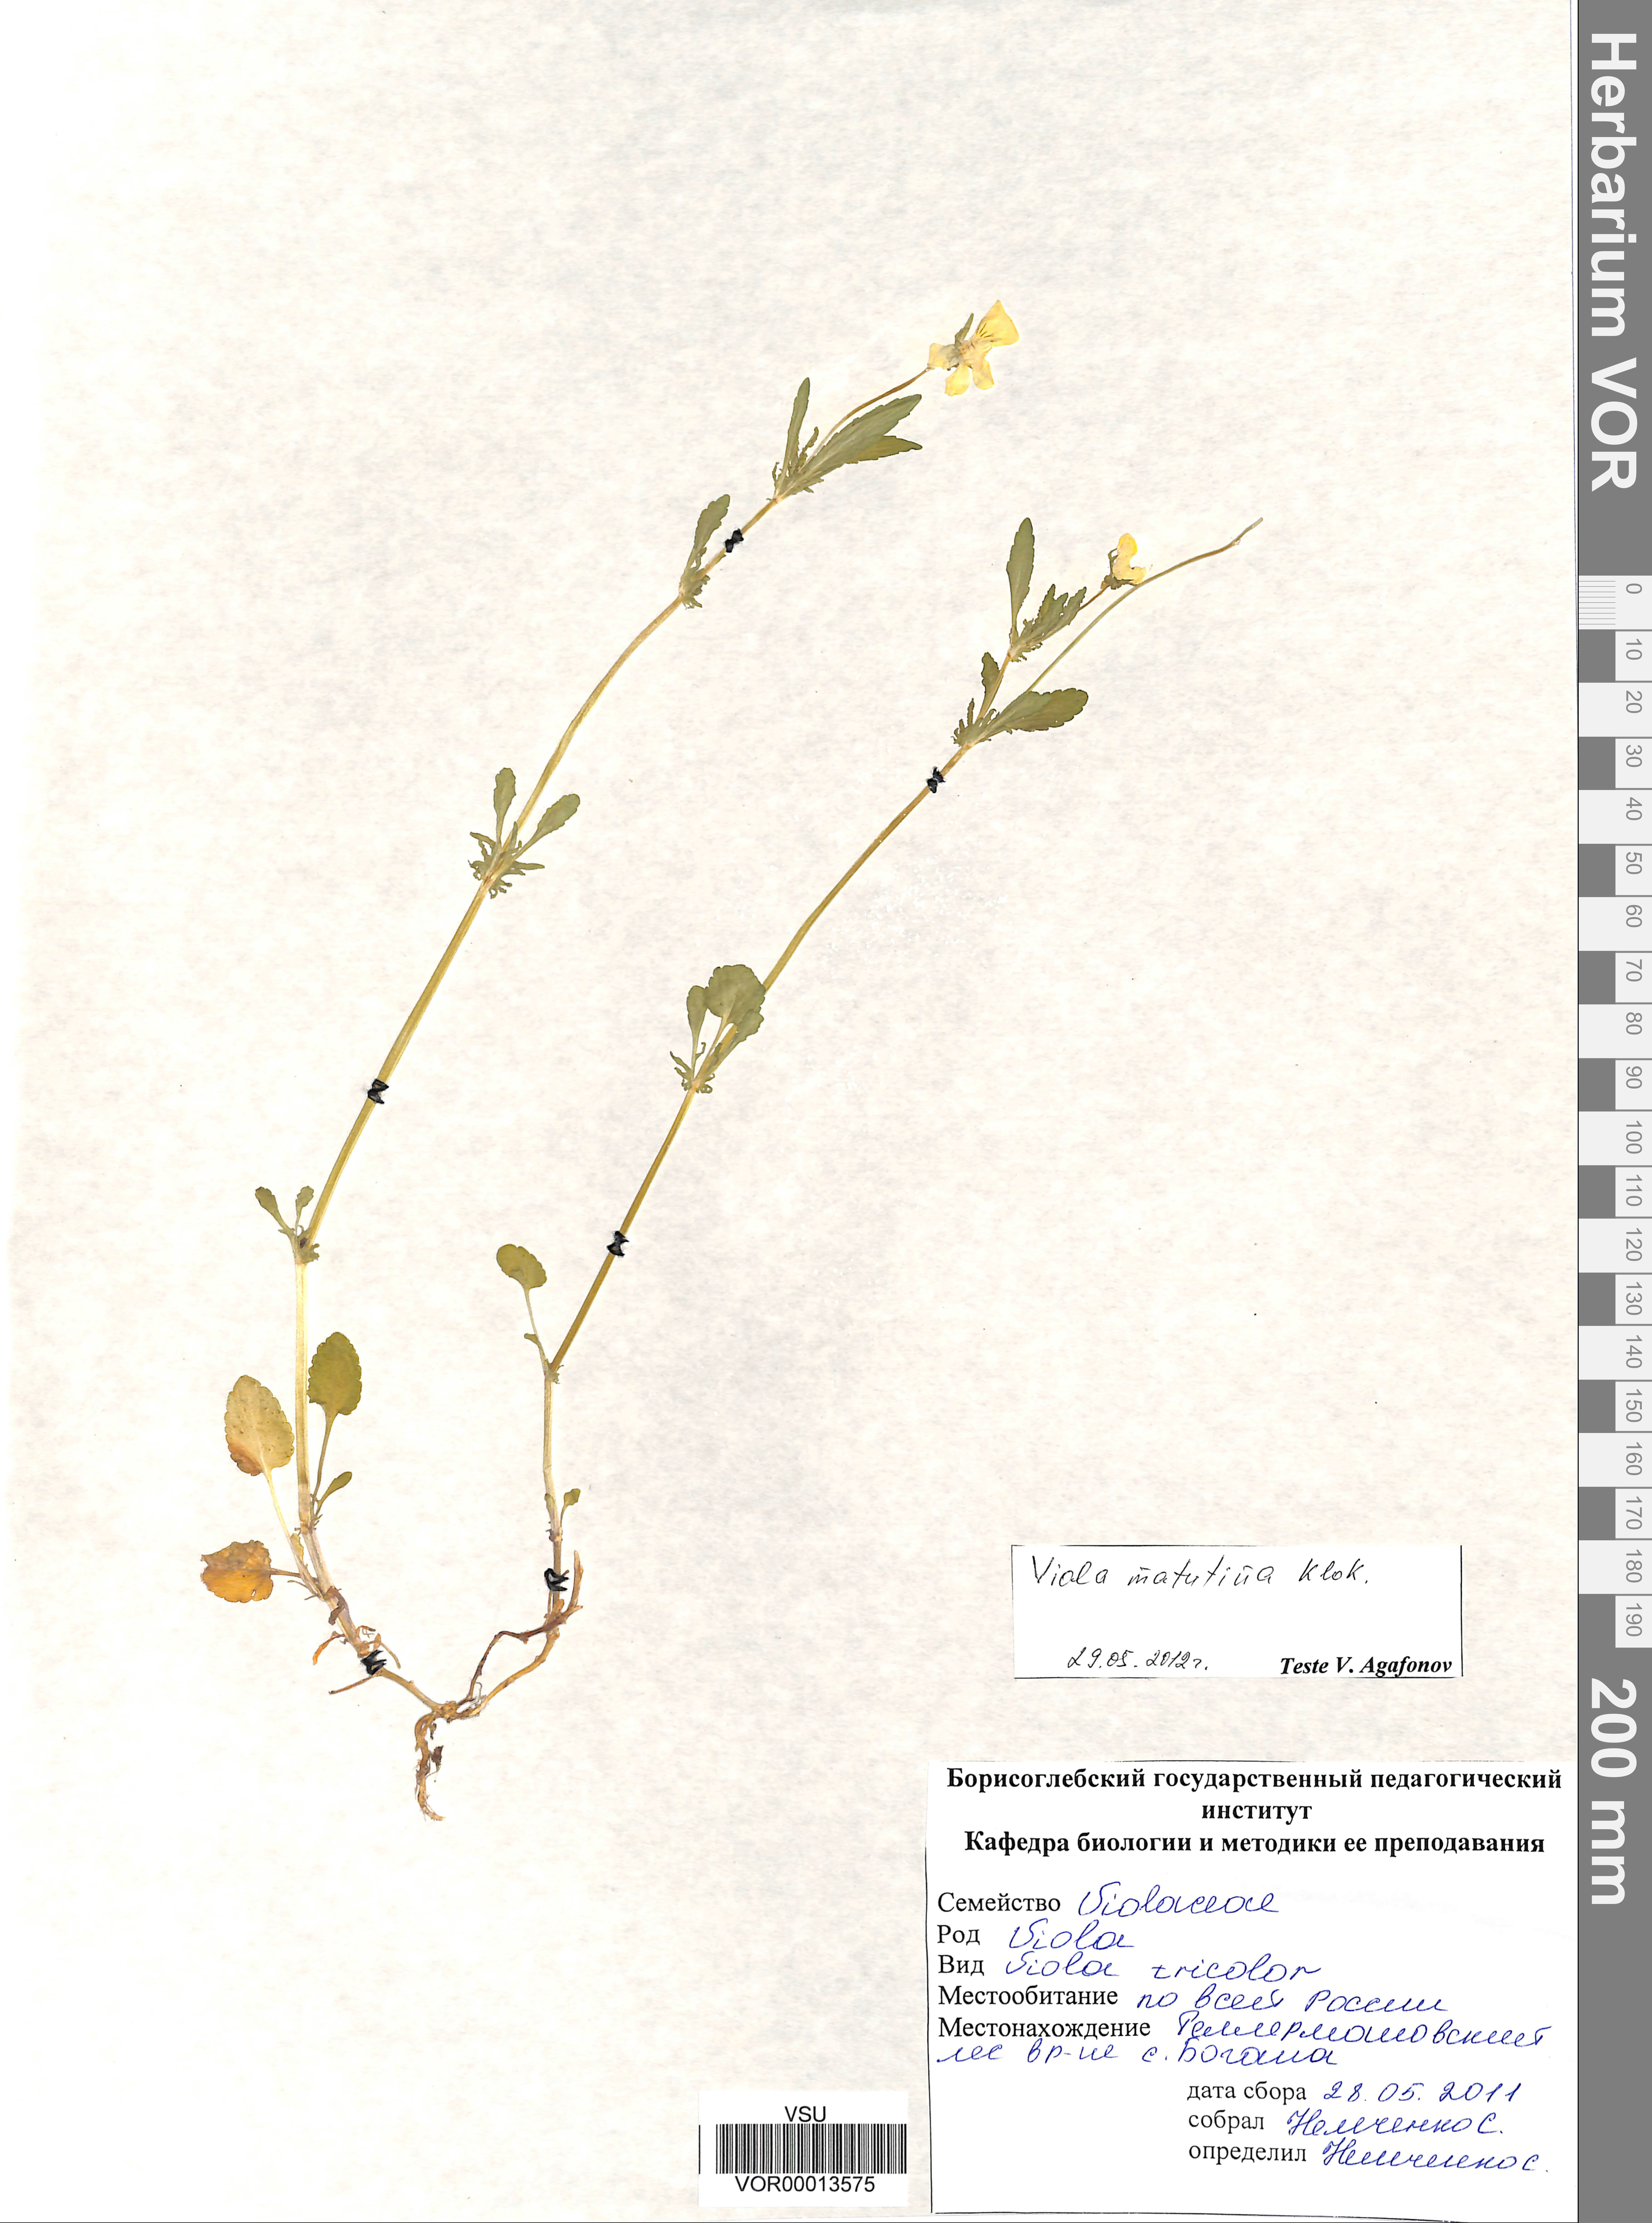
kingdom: Plantae
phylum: Tracheophyta
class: Magnoliopsida
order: Malpighiales
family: Violaceae
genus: Viola
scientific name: Viola tricolor
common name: Pansy
